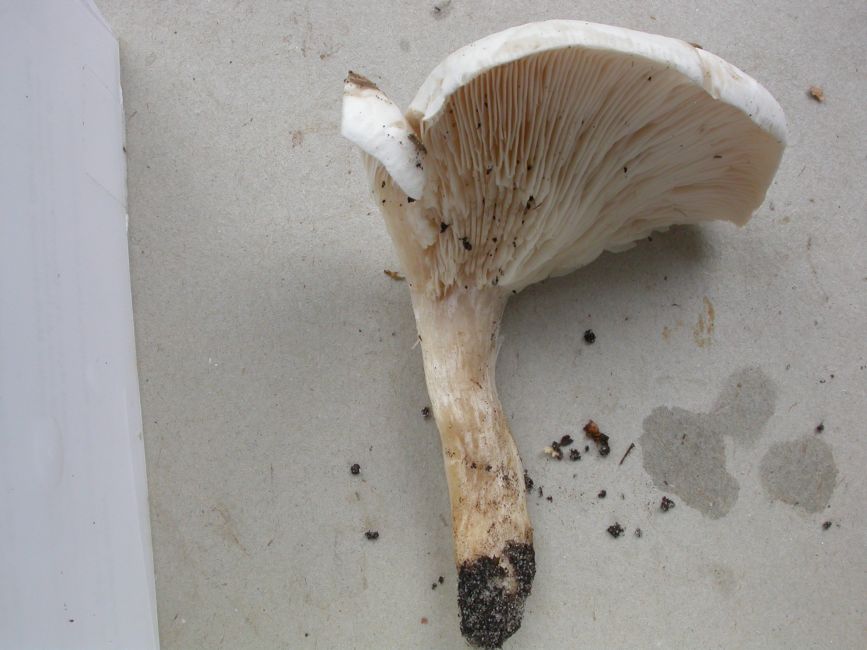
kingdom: Fungi
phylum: Basidiomycota
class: Agaricomycetes
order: Agaricales
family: Tricholomataceae
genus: Aspropaxillus
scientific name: Aspropaxillus giganteus
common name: kæmpe-tragtridderhat
